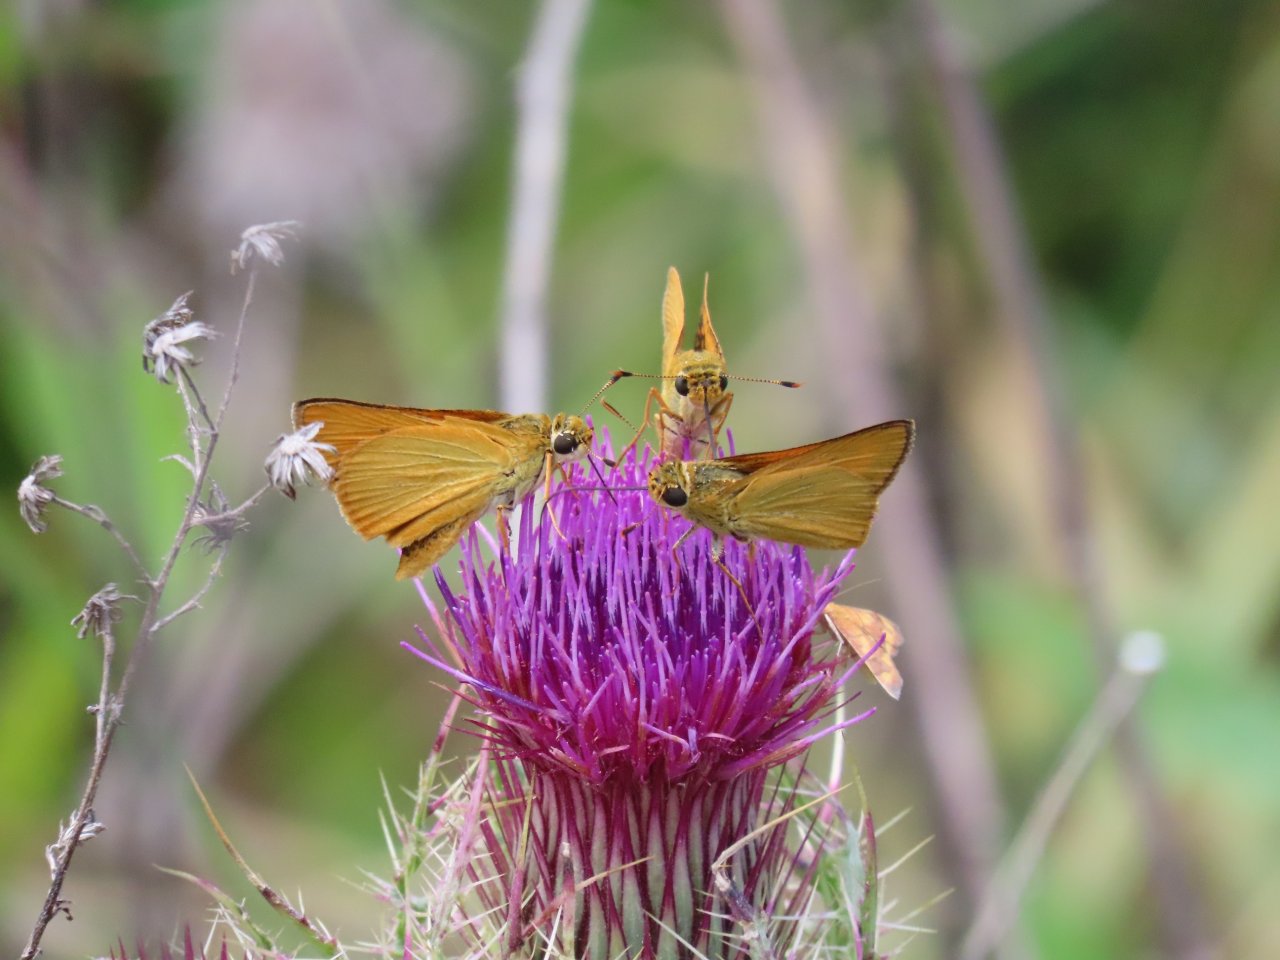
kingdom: Animalia
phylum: Arthropoda
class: Insecta
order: Lepidoptera
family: Hesperiidae
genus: Atrytone
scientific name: Atrytone delaware
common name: Delaware Skipper
